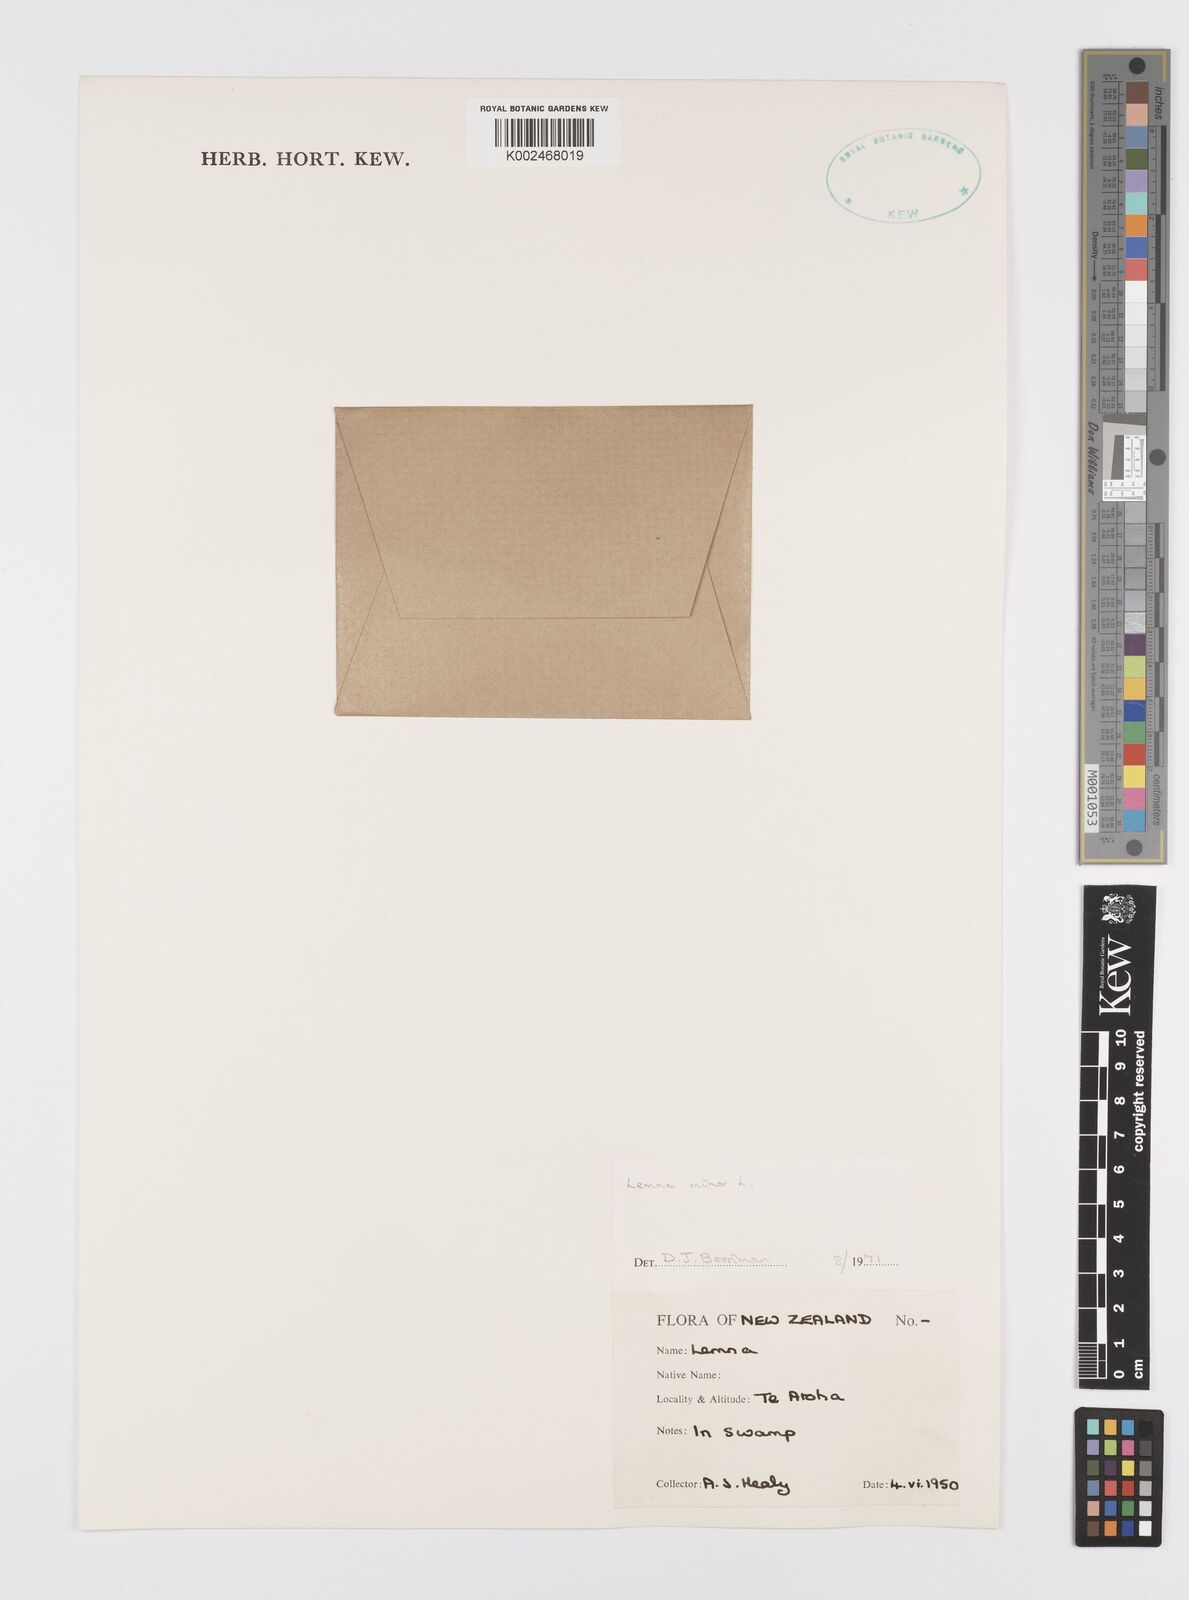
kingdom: Plantae
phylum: Tracheophyta
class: Liliopsida
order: Alismatales
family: Araceae
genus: Lemna
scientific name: Lemna minor
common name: Common duckweed
